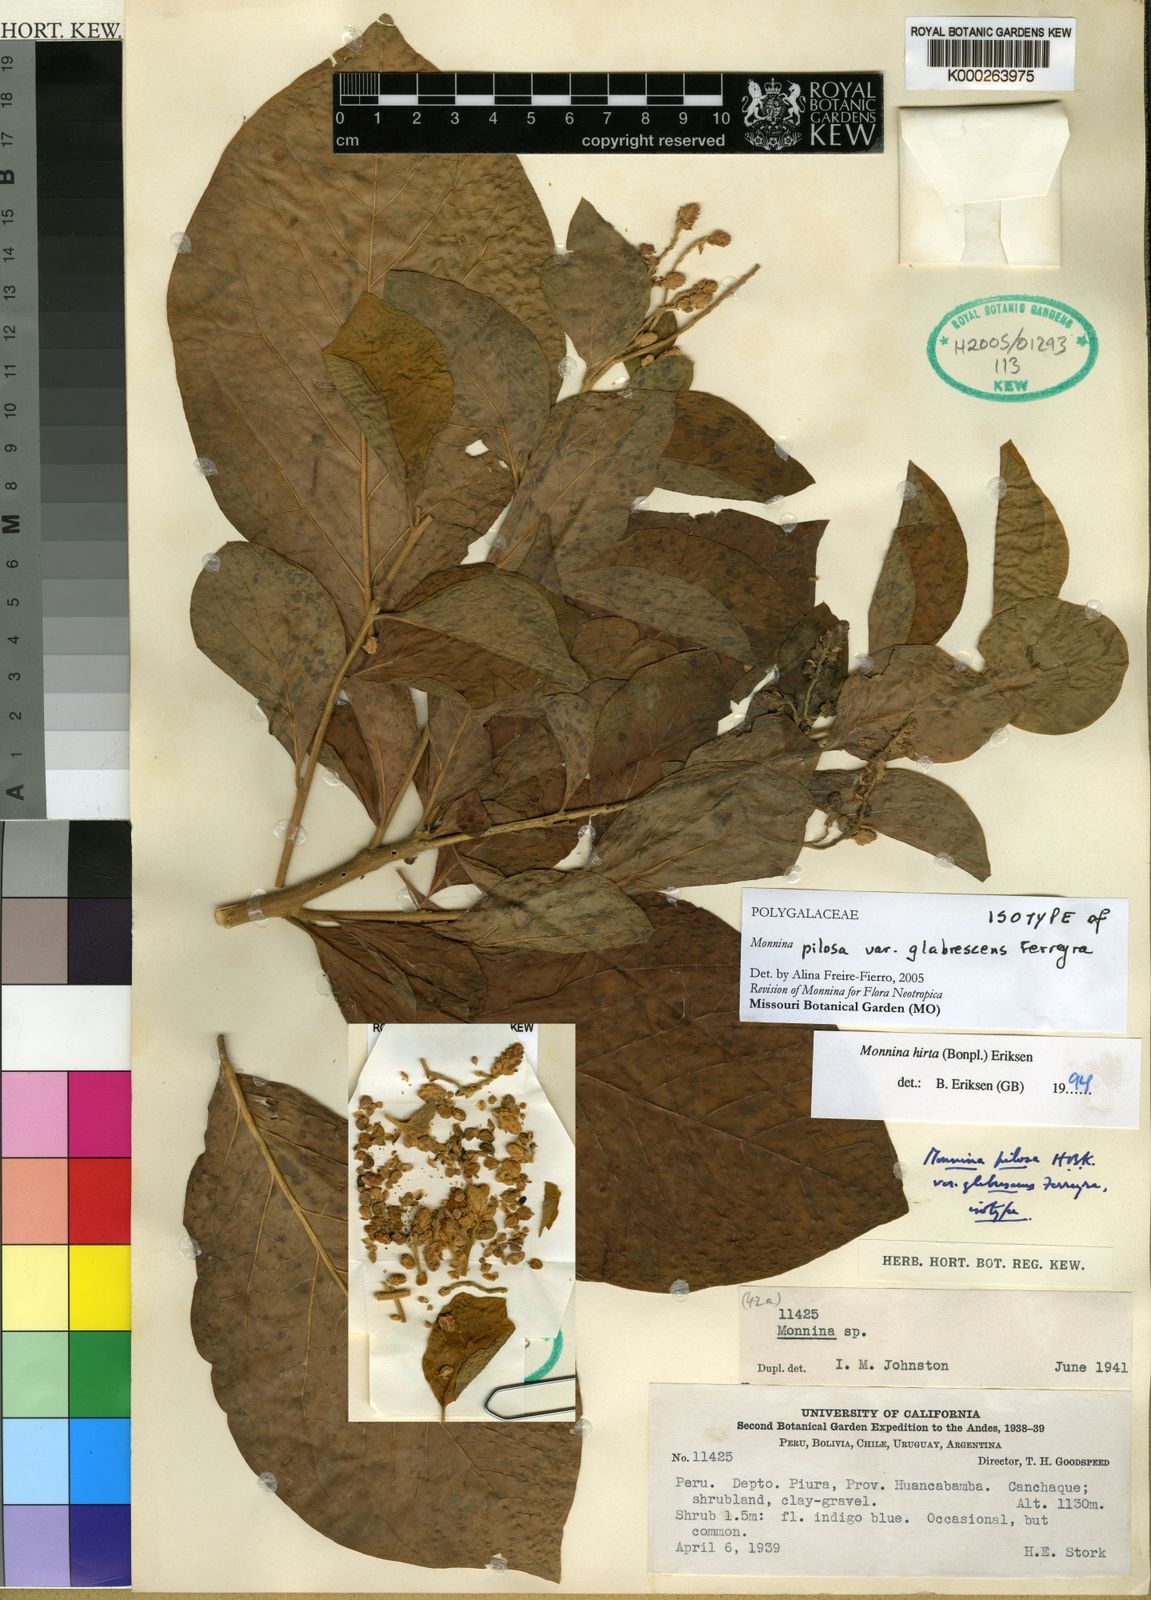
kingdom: Plantae
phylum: Tracheophyta
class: Magnoliopsida
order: Fabales
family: Polygalaceae
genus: Monnina
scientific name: Monnina polystachya
